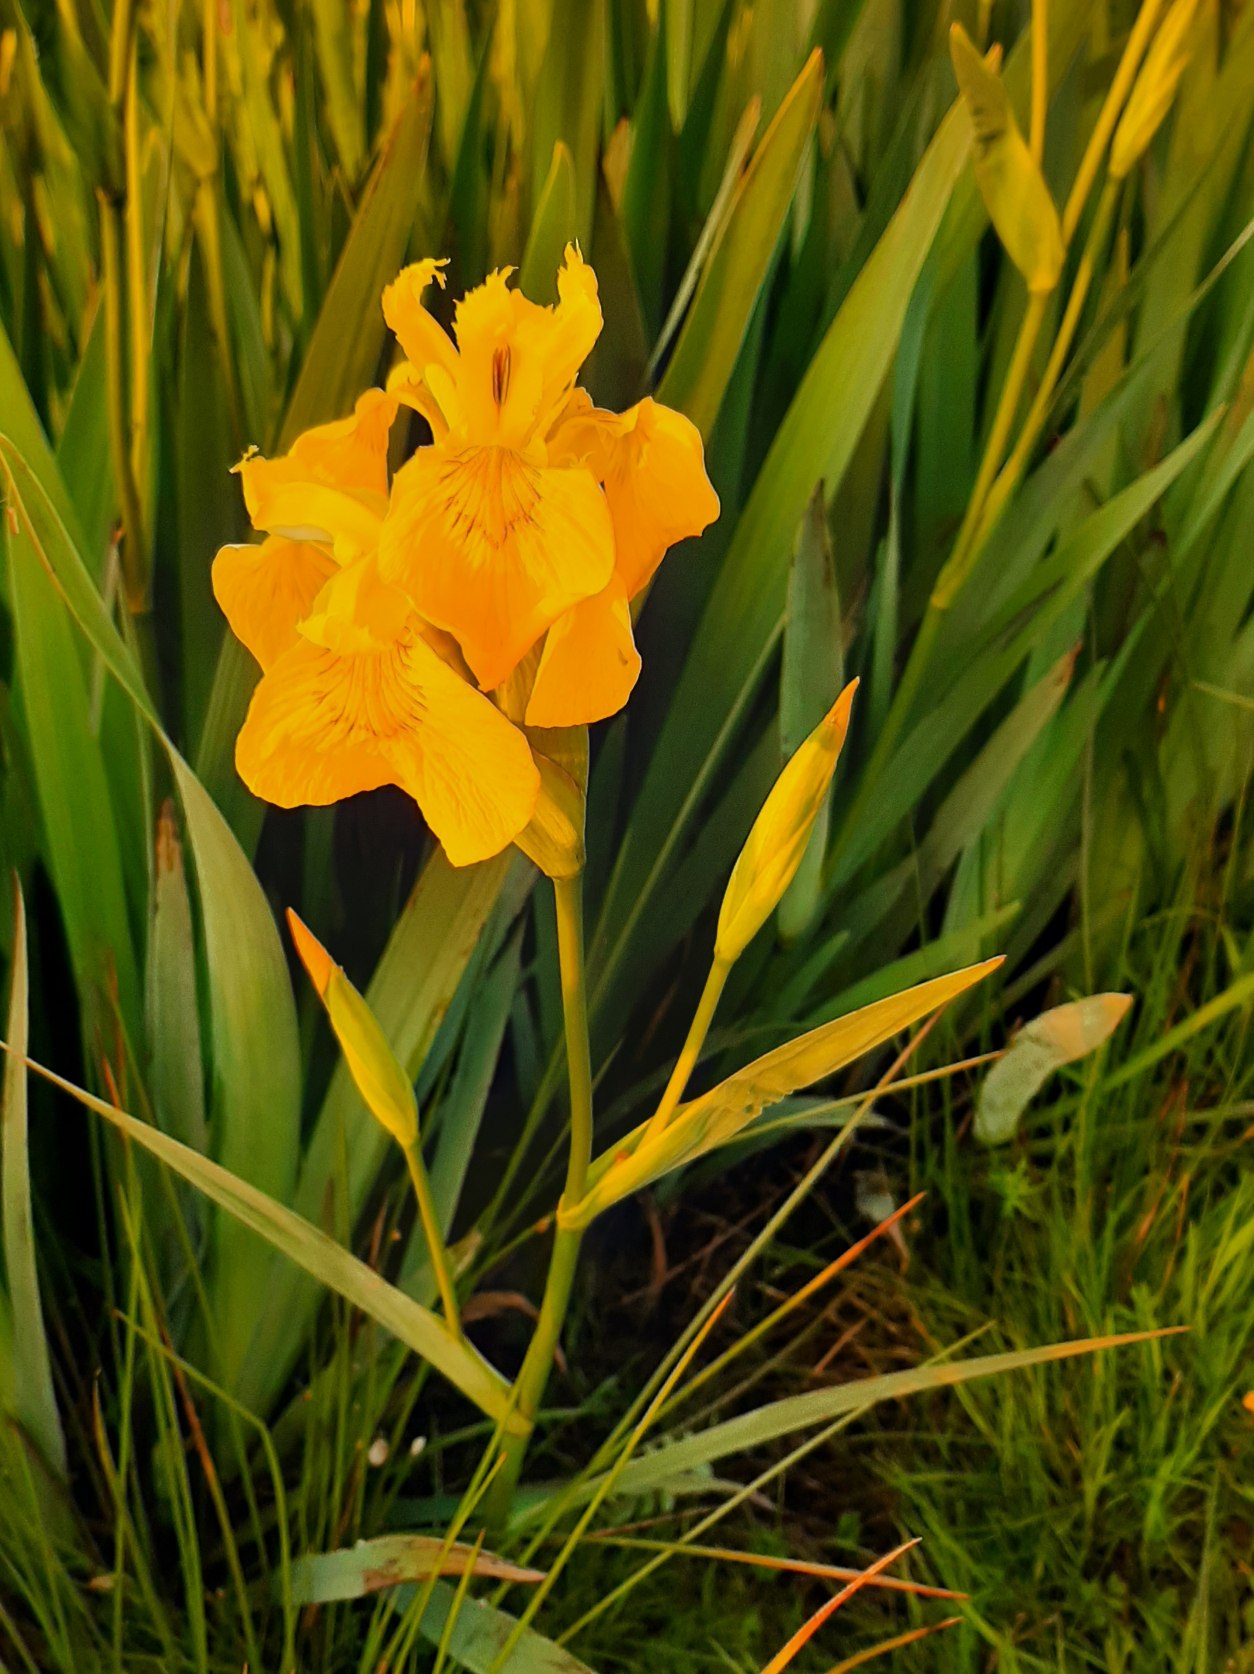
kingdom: Plantae
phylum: Tracheophyta
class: Liliopsida
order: Asparagales
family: Iridaceae
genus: Iris
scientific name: Iris pseudacorus
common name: Gul iris
